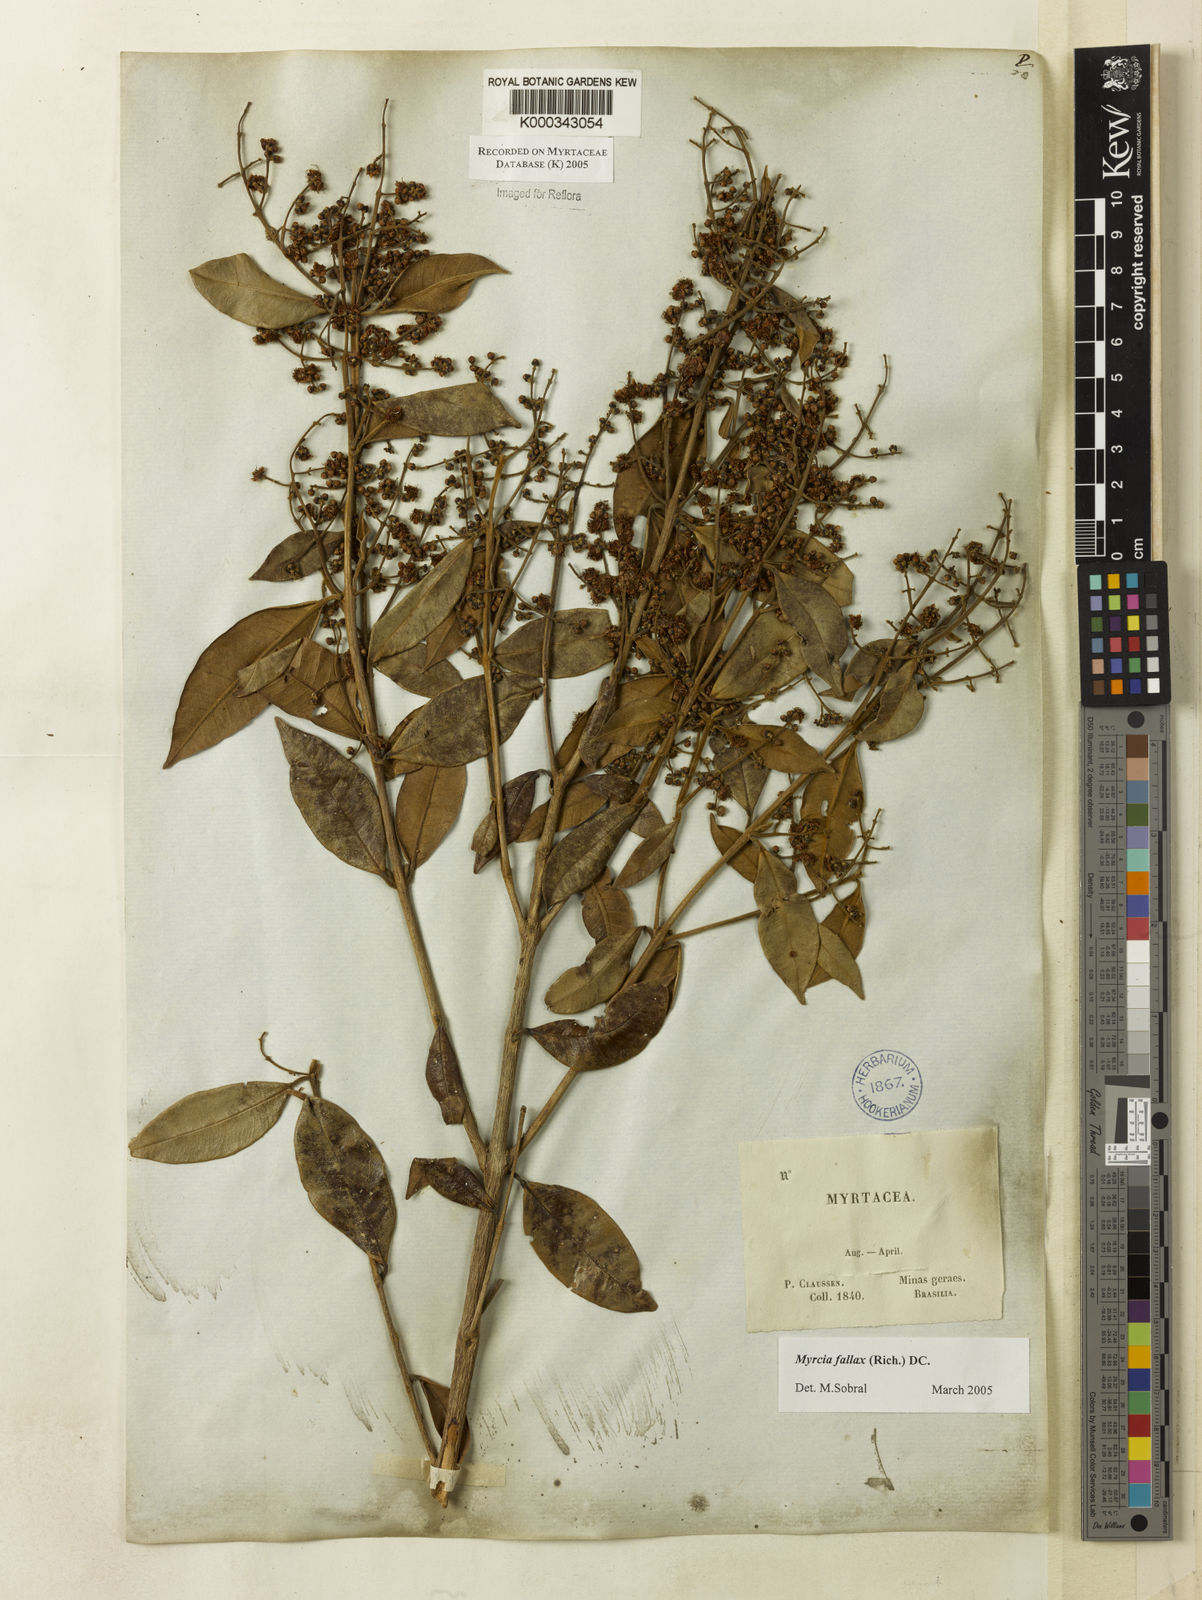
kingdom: Plantae
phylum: Tracheophyta
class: Magnoliopsida
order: Myrtales
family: Myrtaceae
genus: Myrcia
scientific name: Myrcia splendens
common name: Surinam cherry
